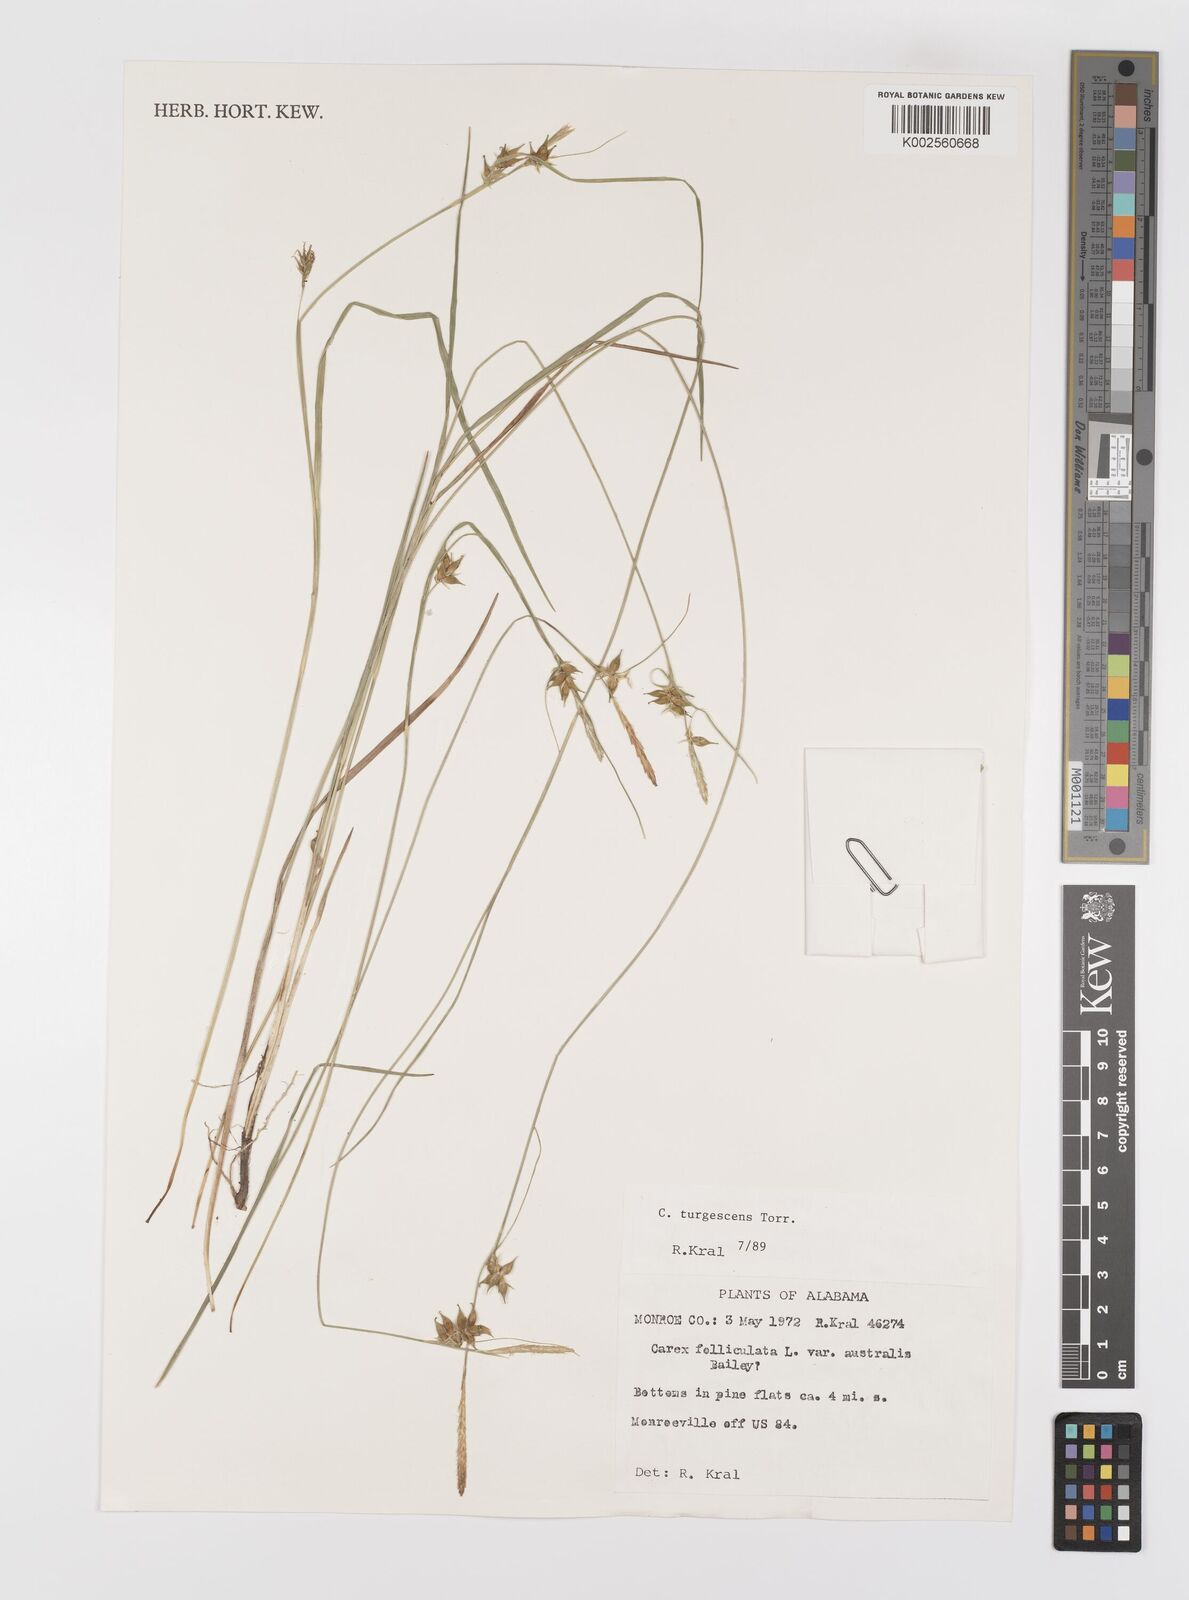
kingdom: Plantae
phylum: Tracheophyta
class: Liliopsida
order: Poales
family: Cyperaceae
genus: Carex
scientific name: Carex turgescens
